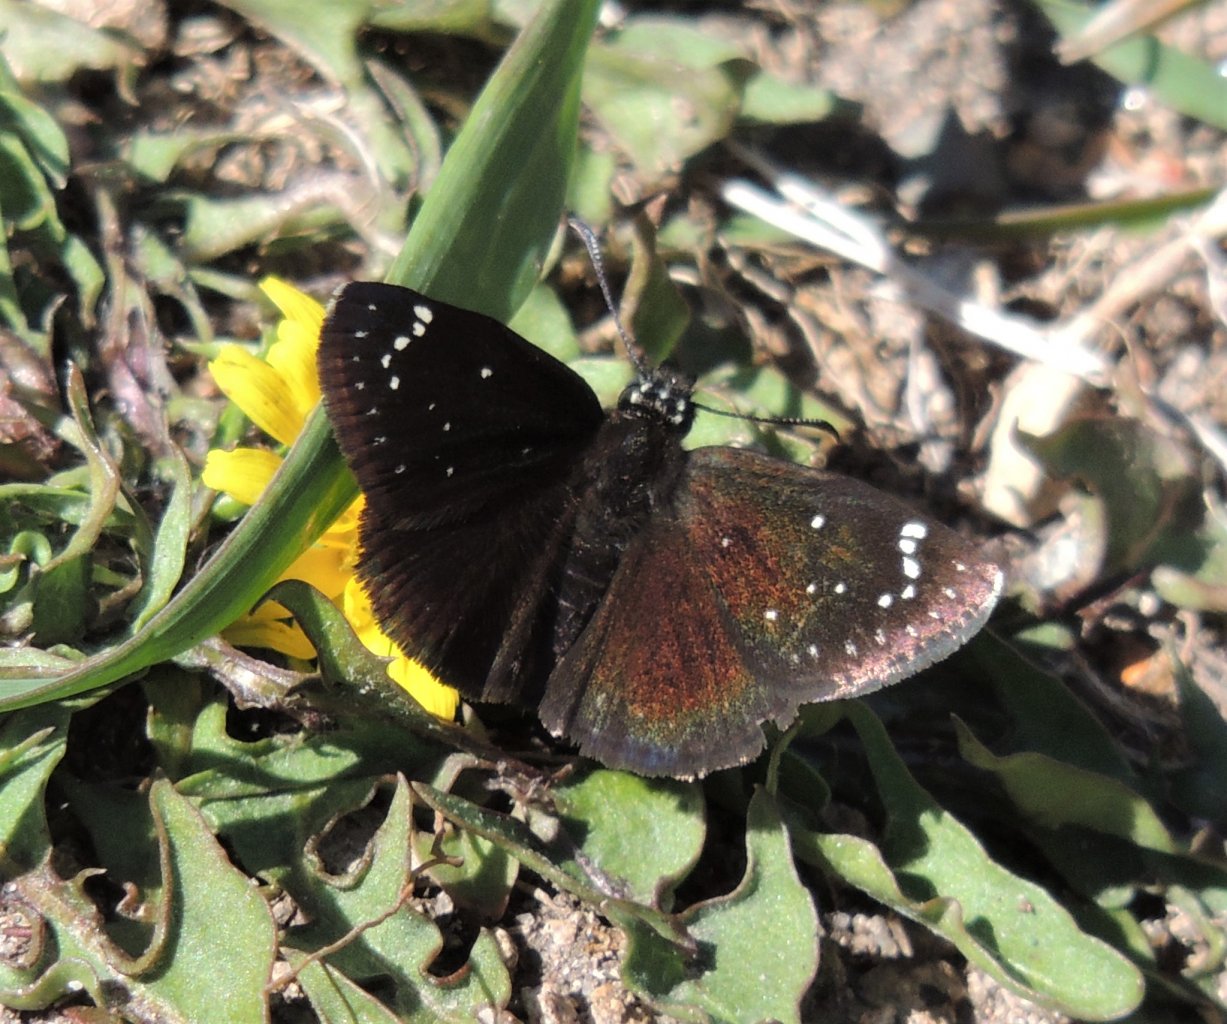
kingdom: Animalia
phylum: Arthropoda
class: Insecta
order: Lepidoptera
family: Hesperiidae
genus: Pholisora
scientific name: Pholisora catullus
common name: Common Sootywing
